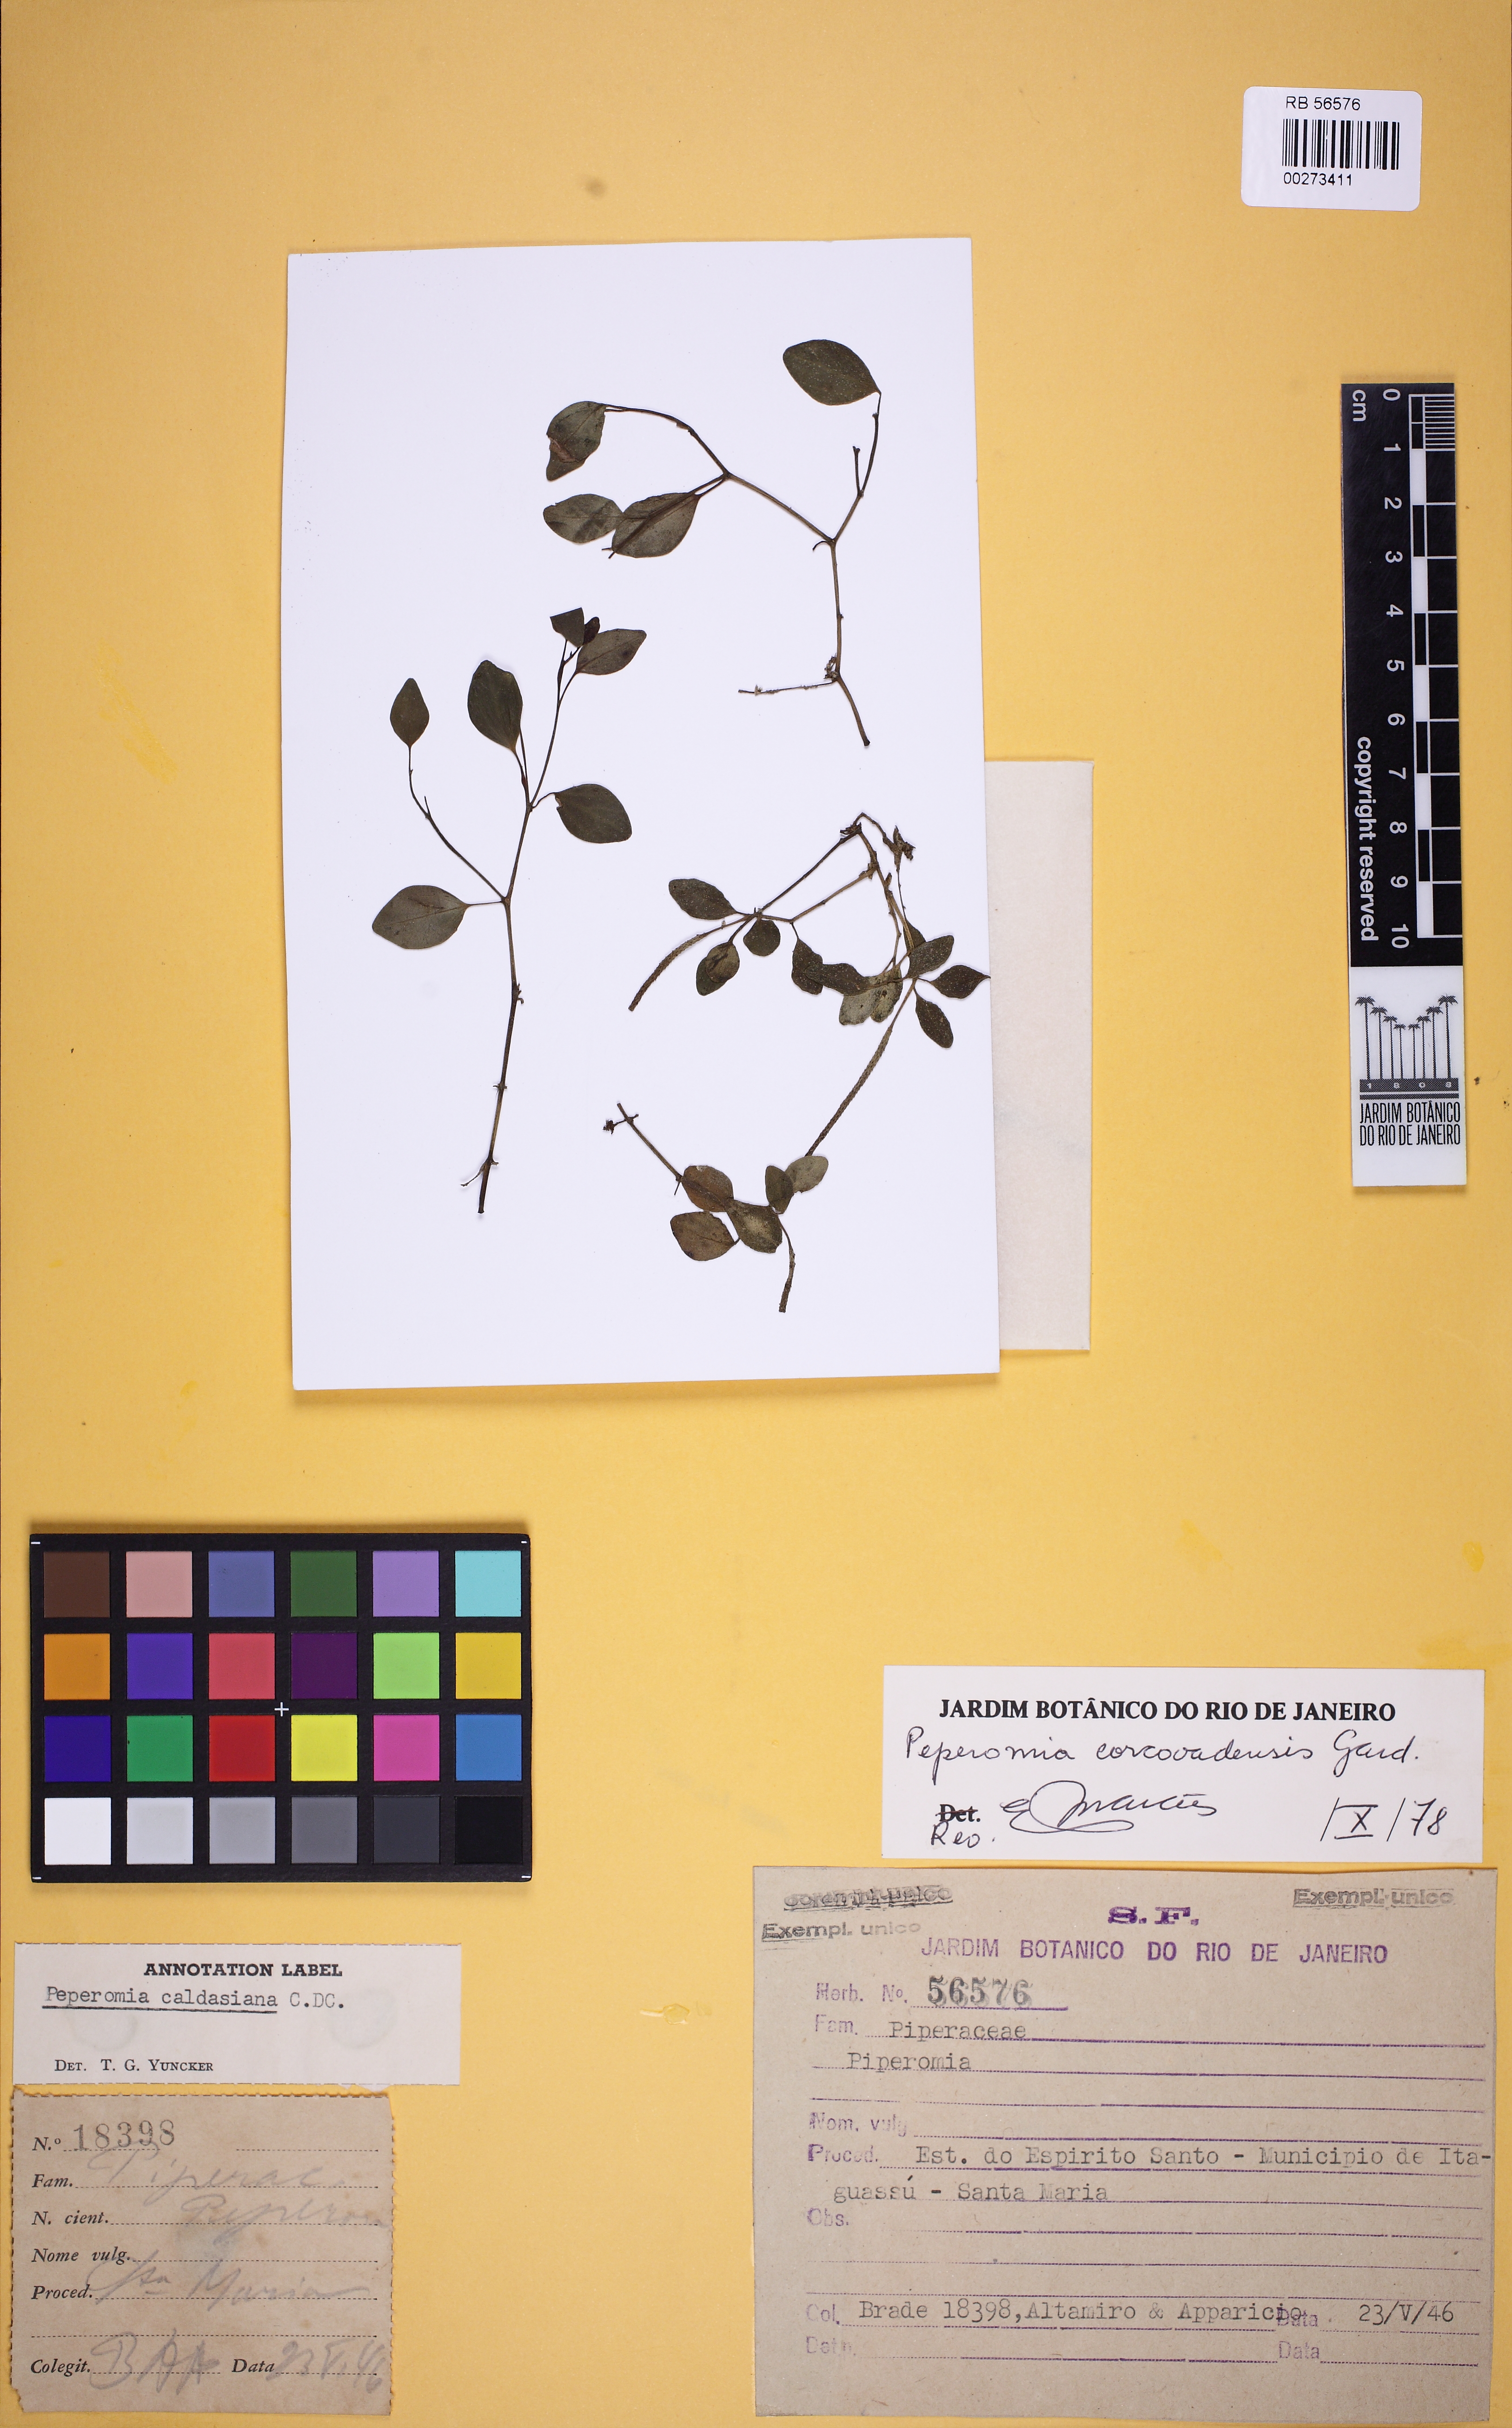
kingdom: Plantae
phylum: Tracheophyta
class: Magnoliopsida
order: Piperales
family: Piperaceae
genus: Peperomia
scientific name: Peperomia corcovadensis
